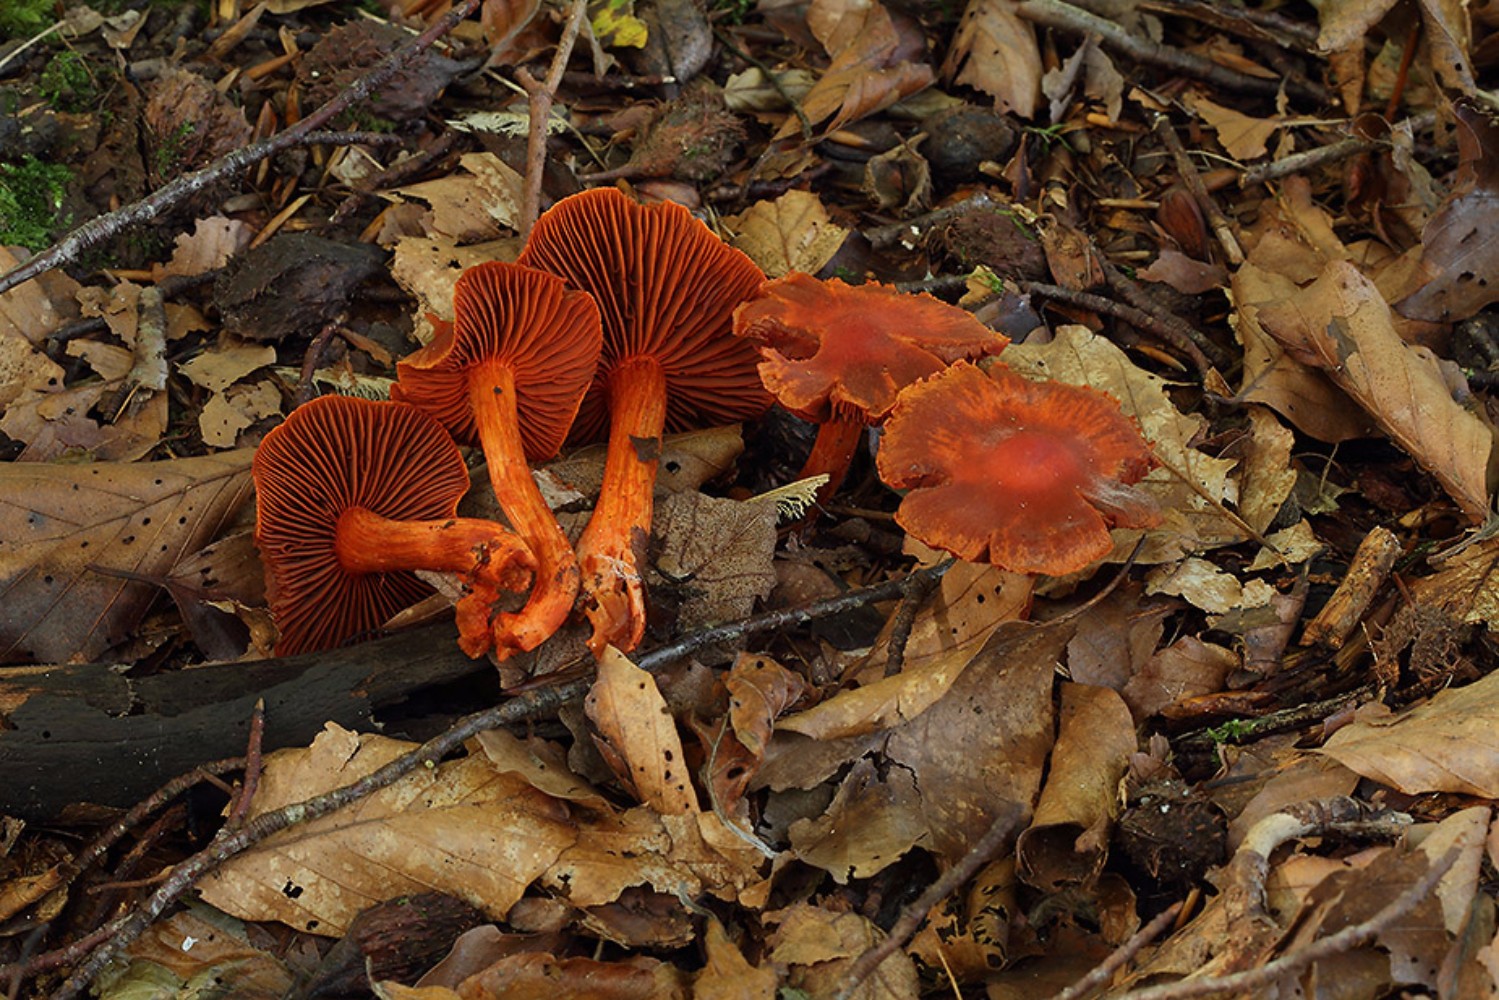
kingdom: Fungi
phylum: Basidiomycota
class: Agaricomycetes
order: Agaricales
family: Cortinariaceae
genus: Cortinarius
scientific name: Cortinarius cinnabarinus
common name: cinnober-slørhat
